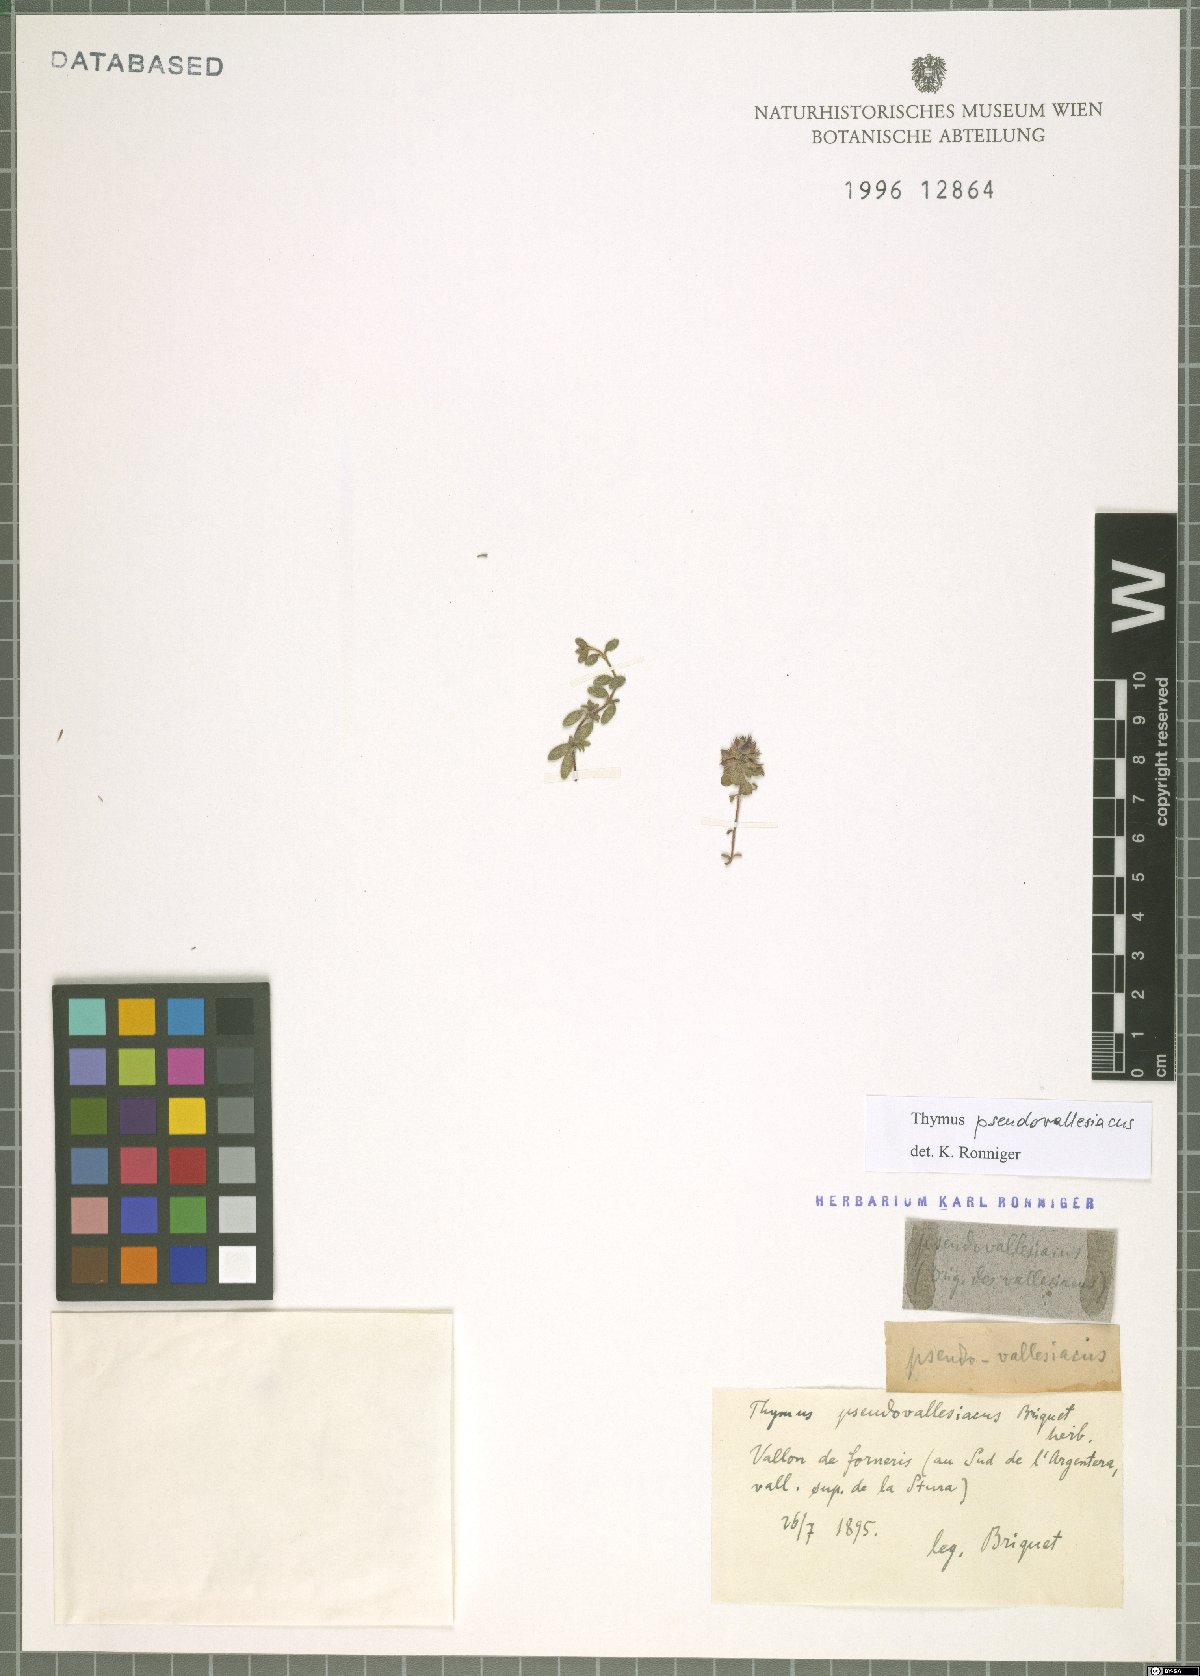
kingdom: Plantae
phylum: Tracheophyta
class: Magnoliopsida
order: Lamiales
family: Lamiaceae
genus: Thymus
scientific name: Thymus
